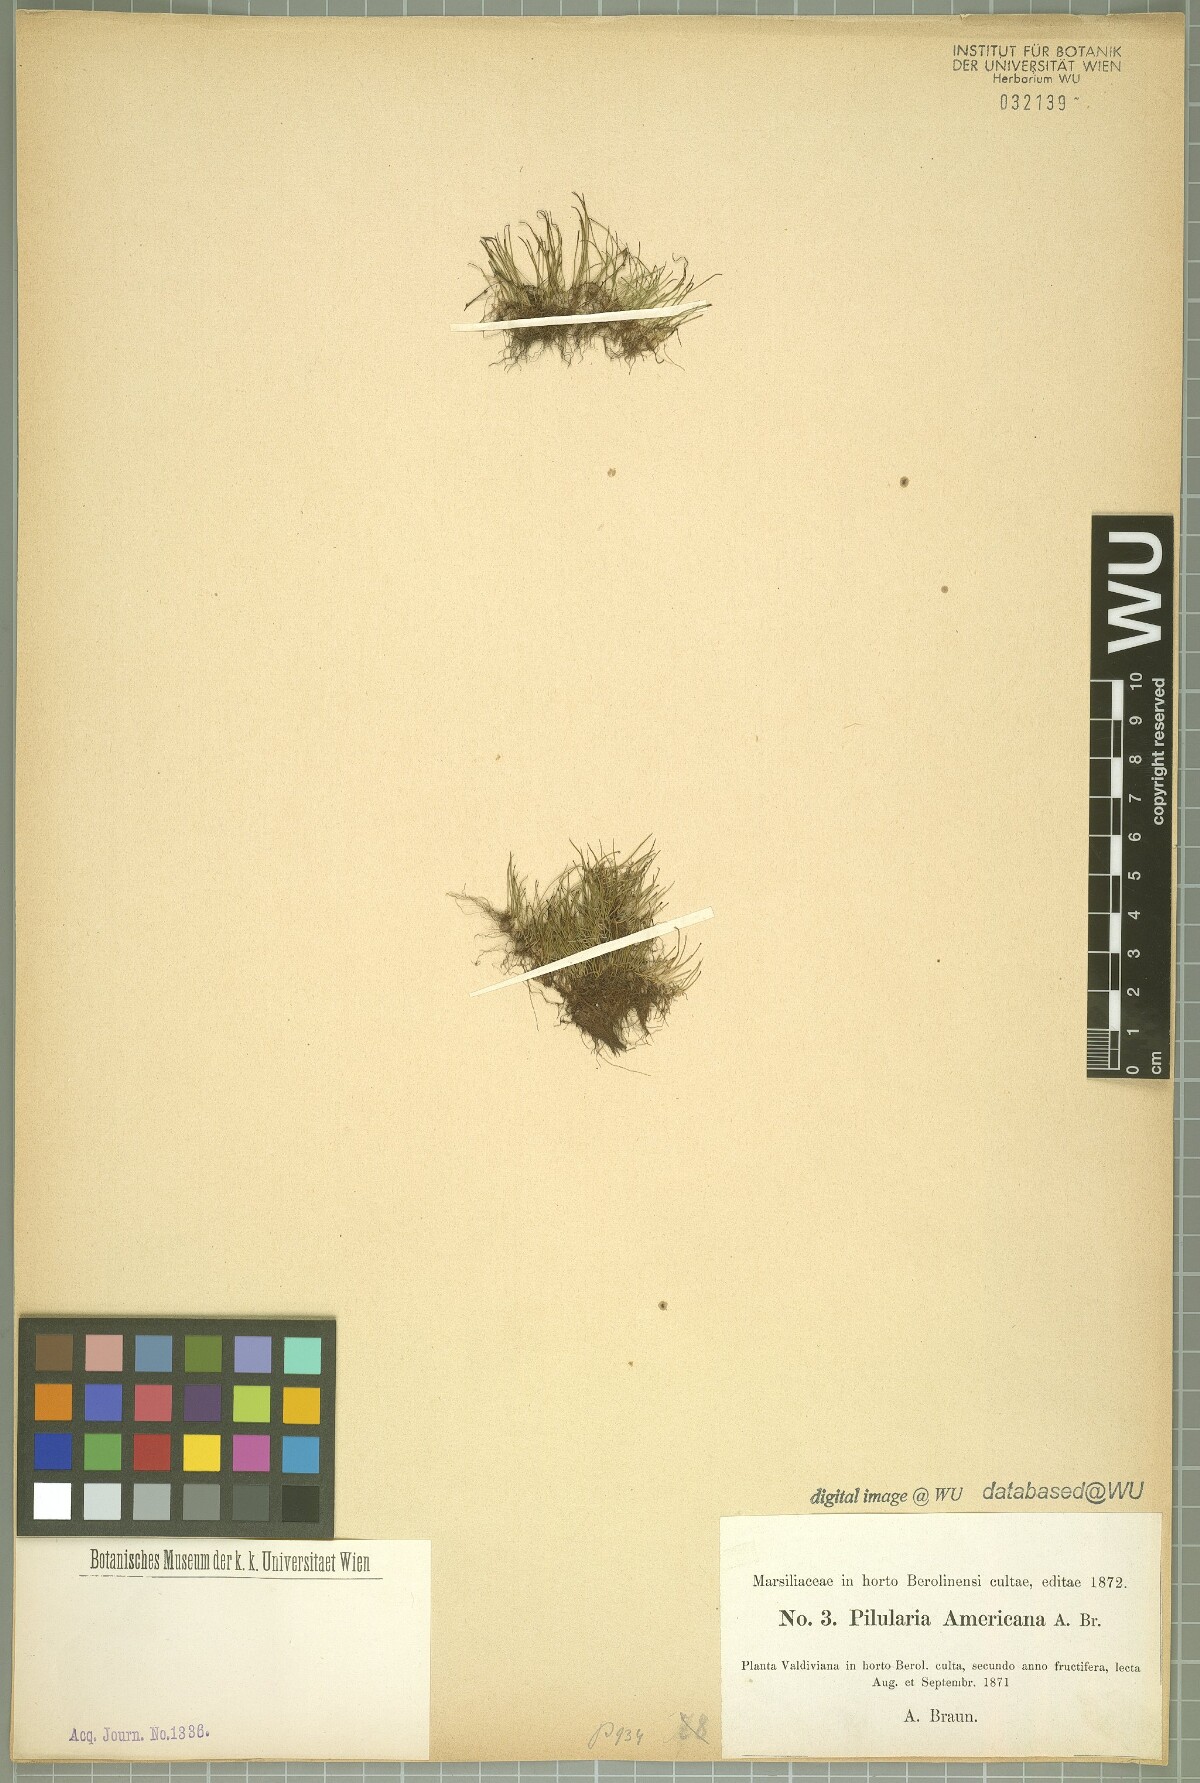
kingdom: Plantae
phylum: Tracheophyta
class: Polypodiopsida
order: Salviniales
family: Marsileaceae
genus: Pilularia
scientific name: Pilularia americana
